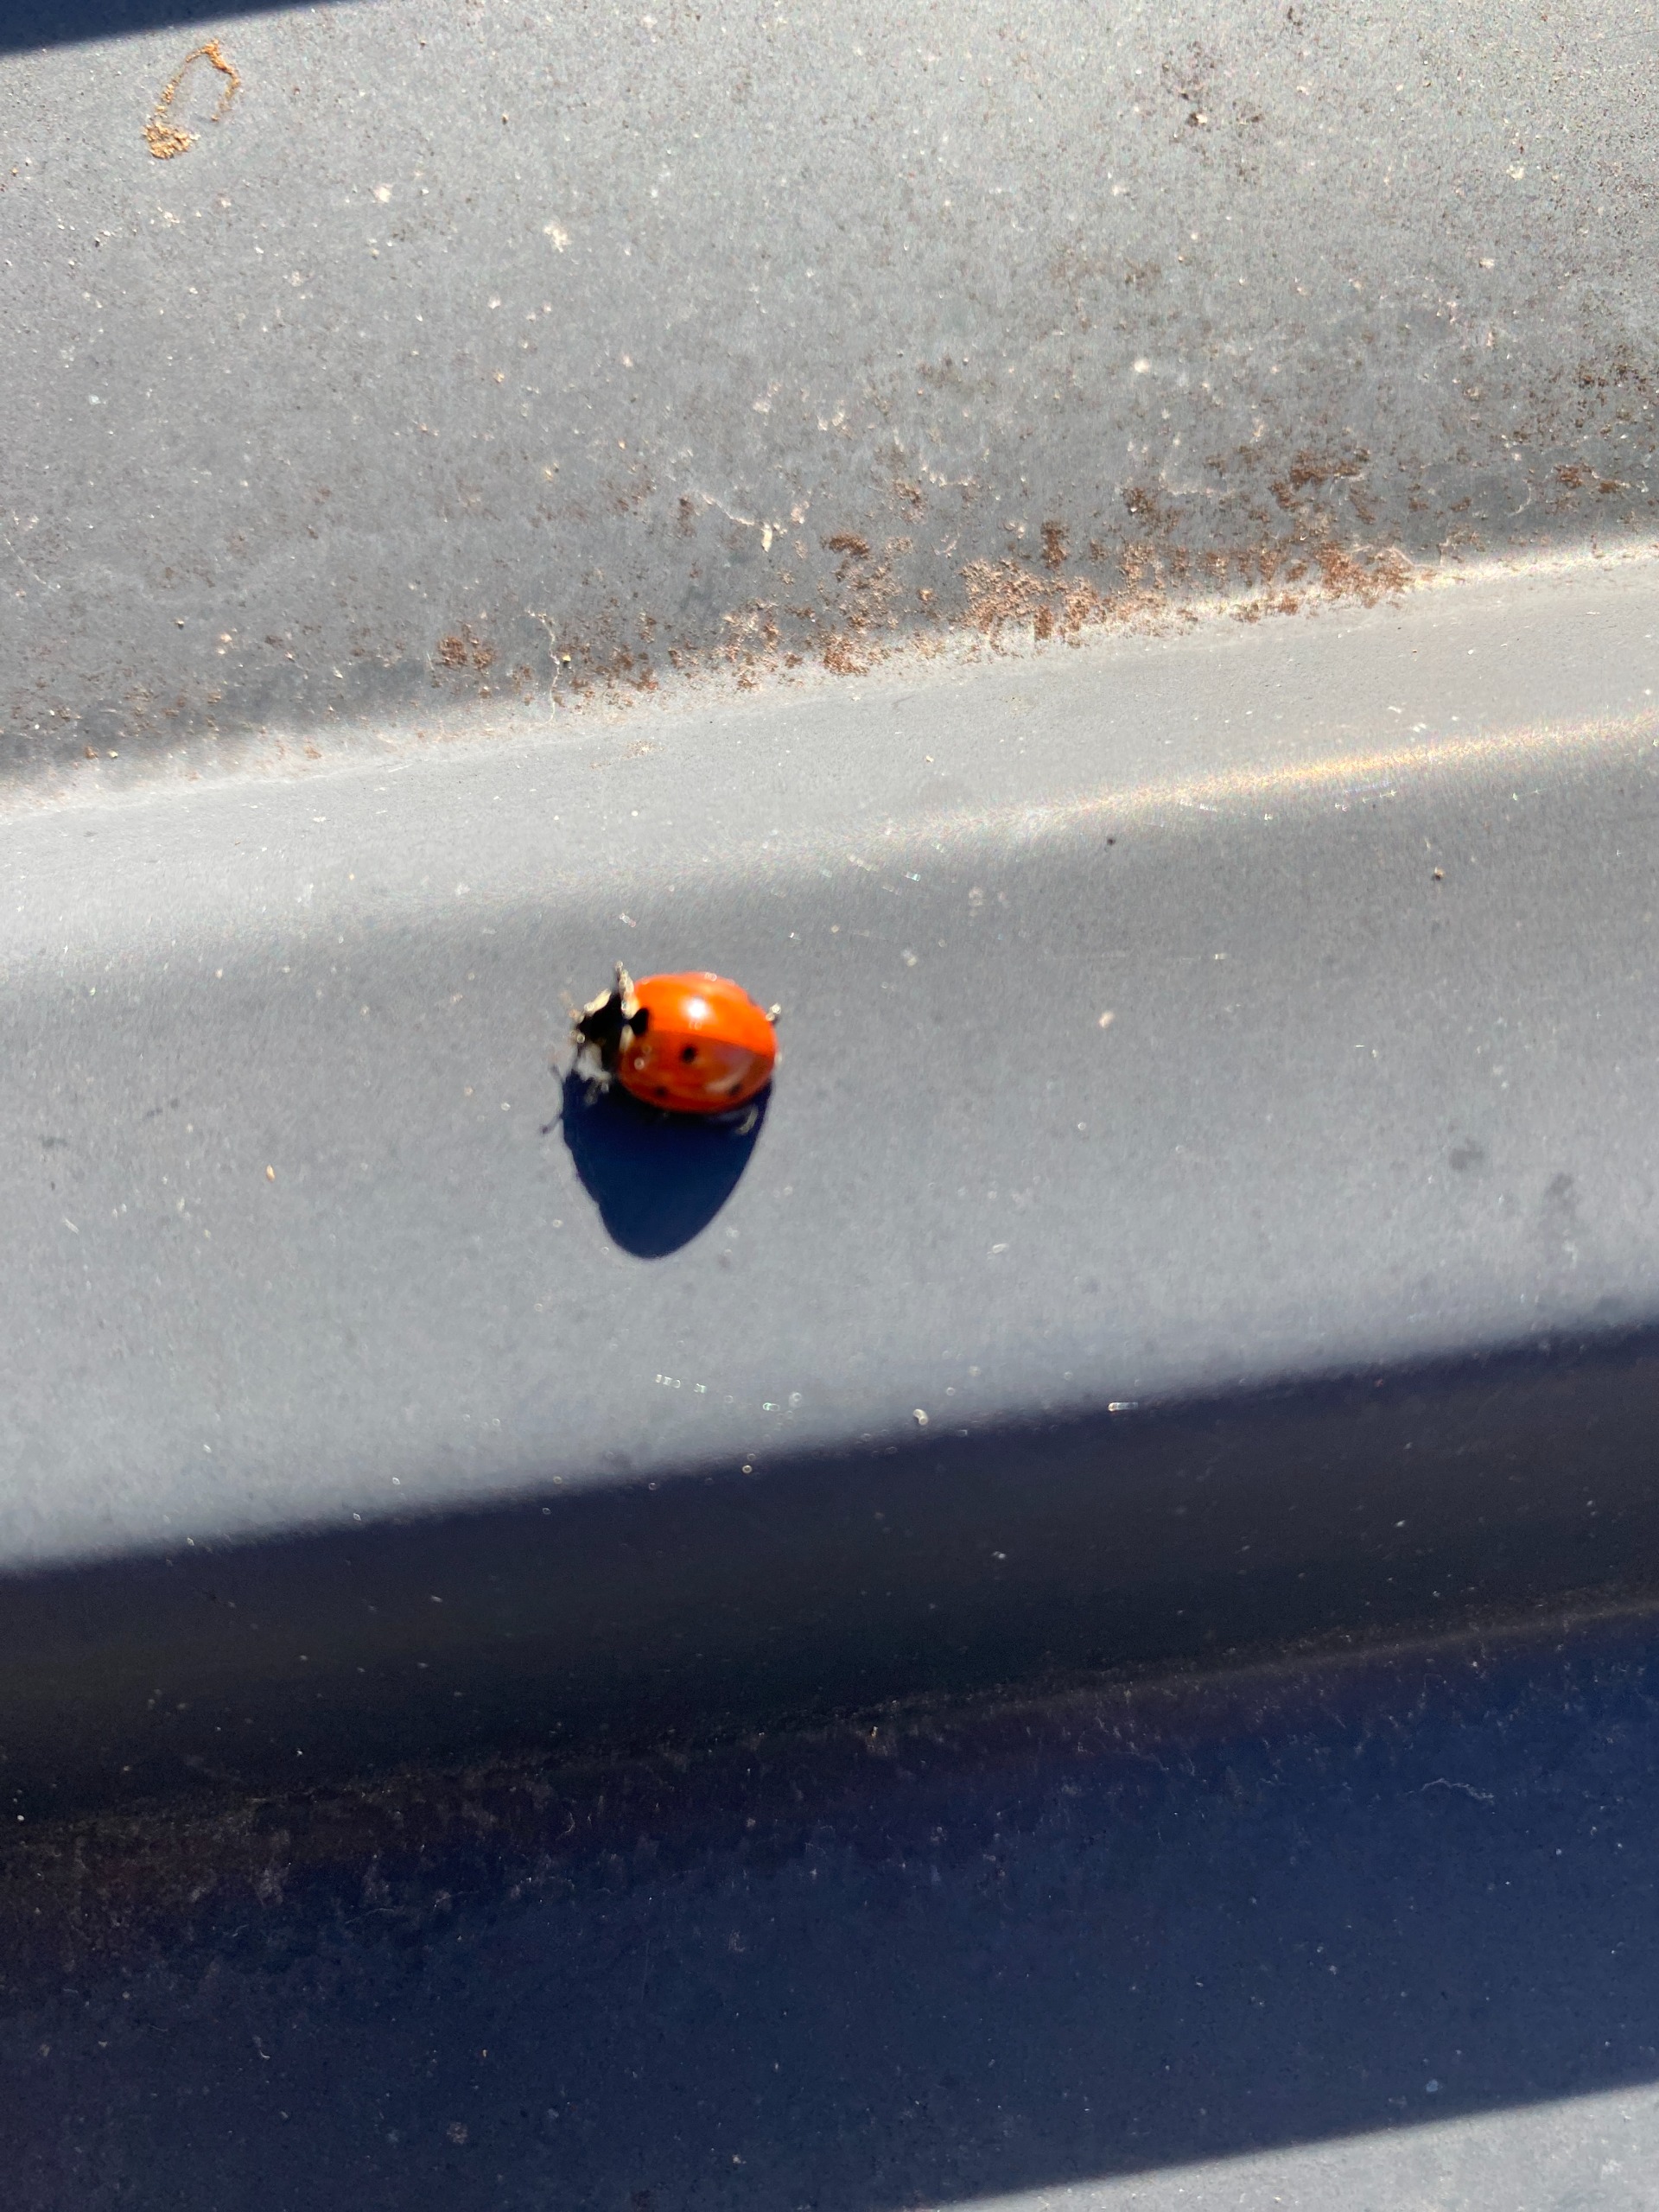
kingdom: Animalia
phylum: Arthropoda
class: Insecta
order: Coleoptera
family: Coccinellidae
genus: Coccinella
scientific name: Coccinella septempunctata
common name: Syvplettet mariehøne
